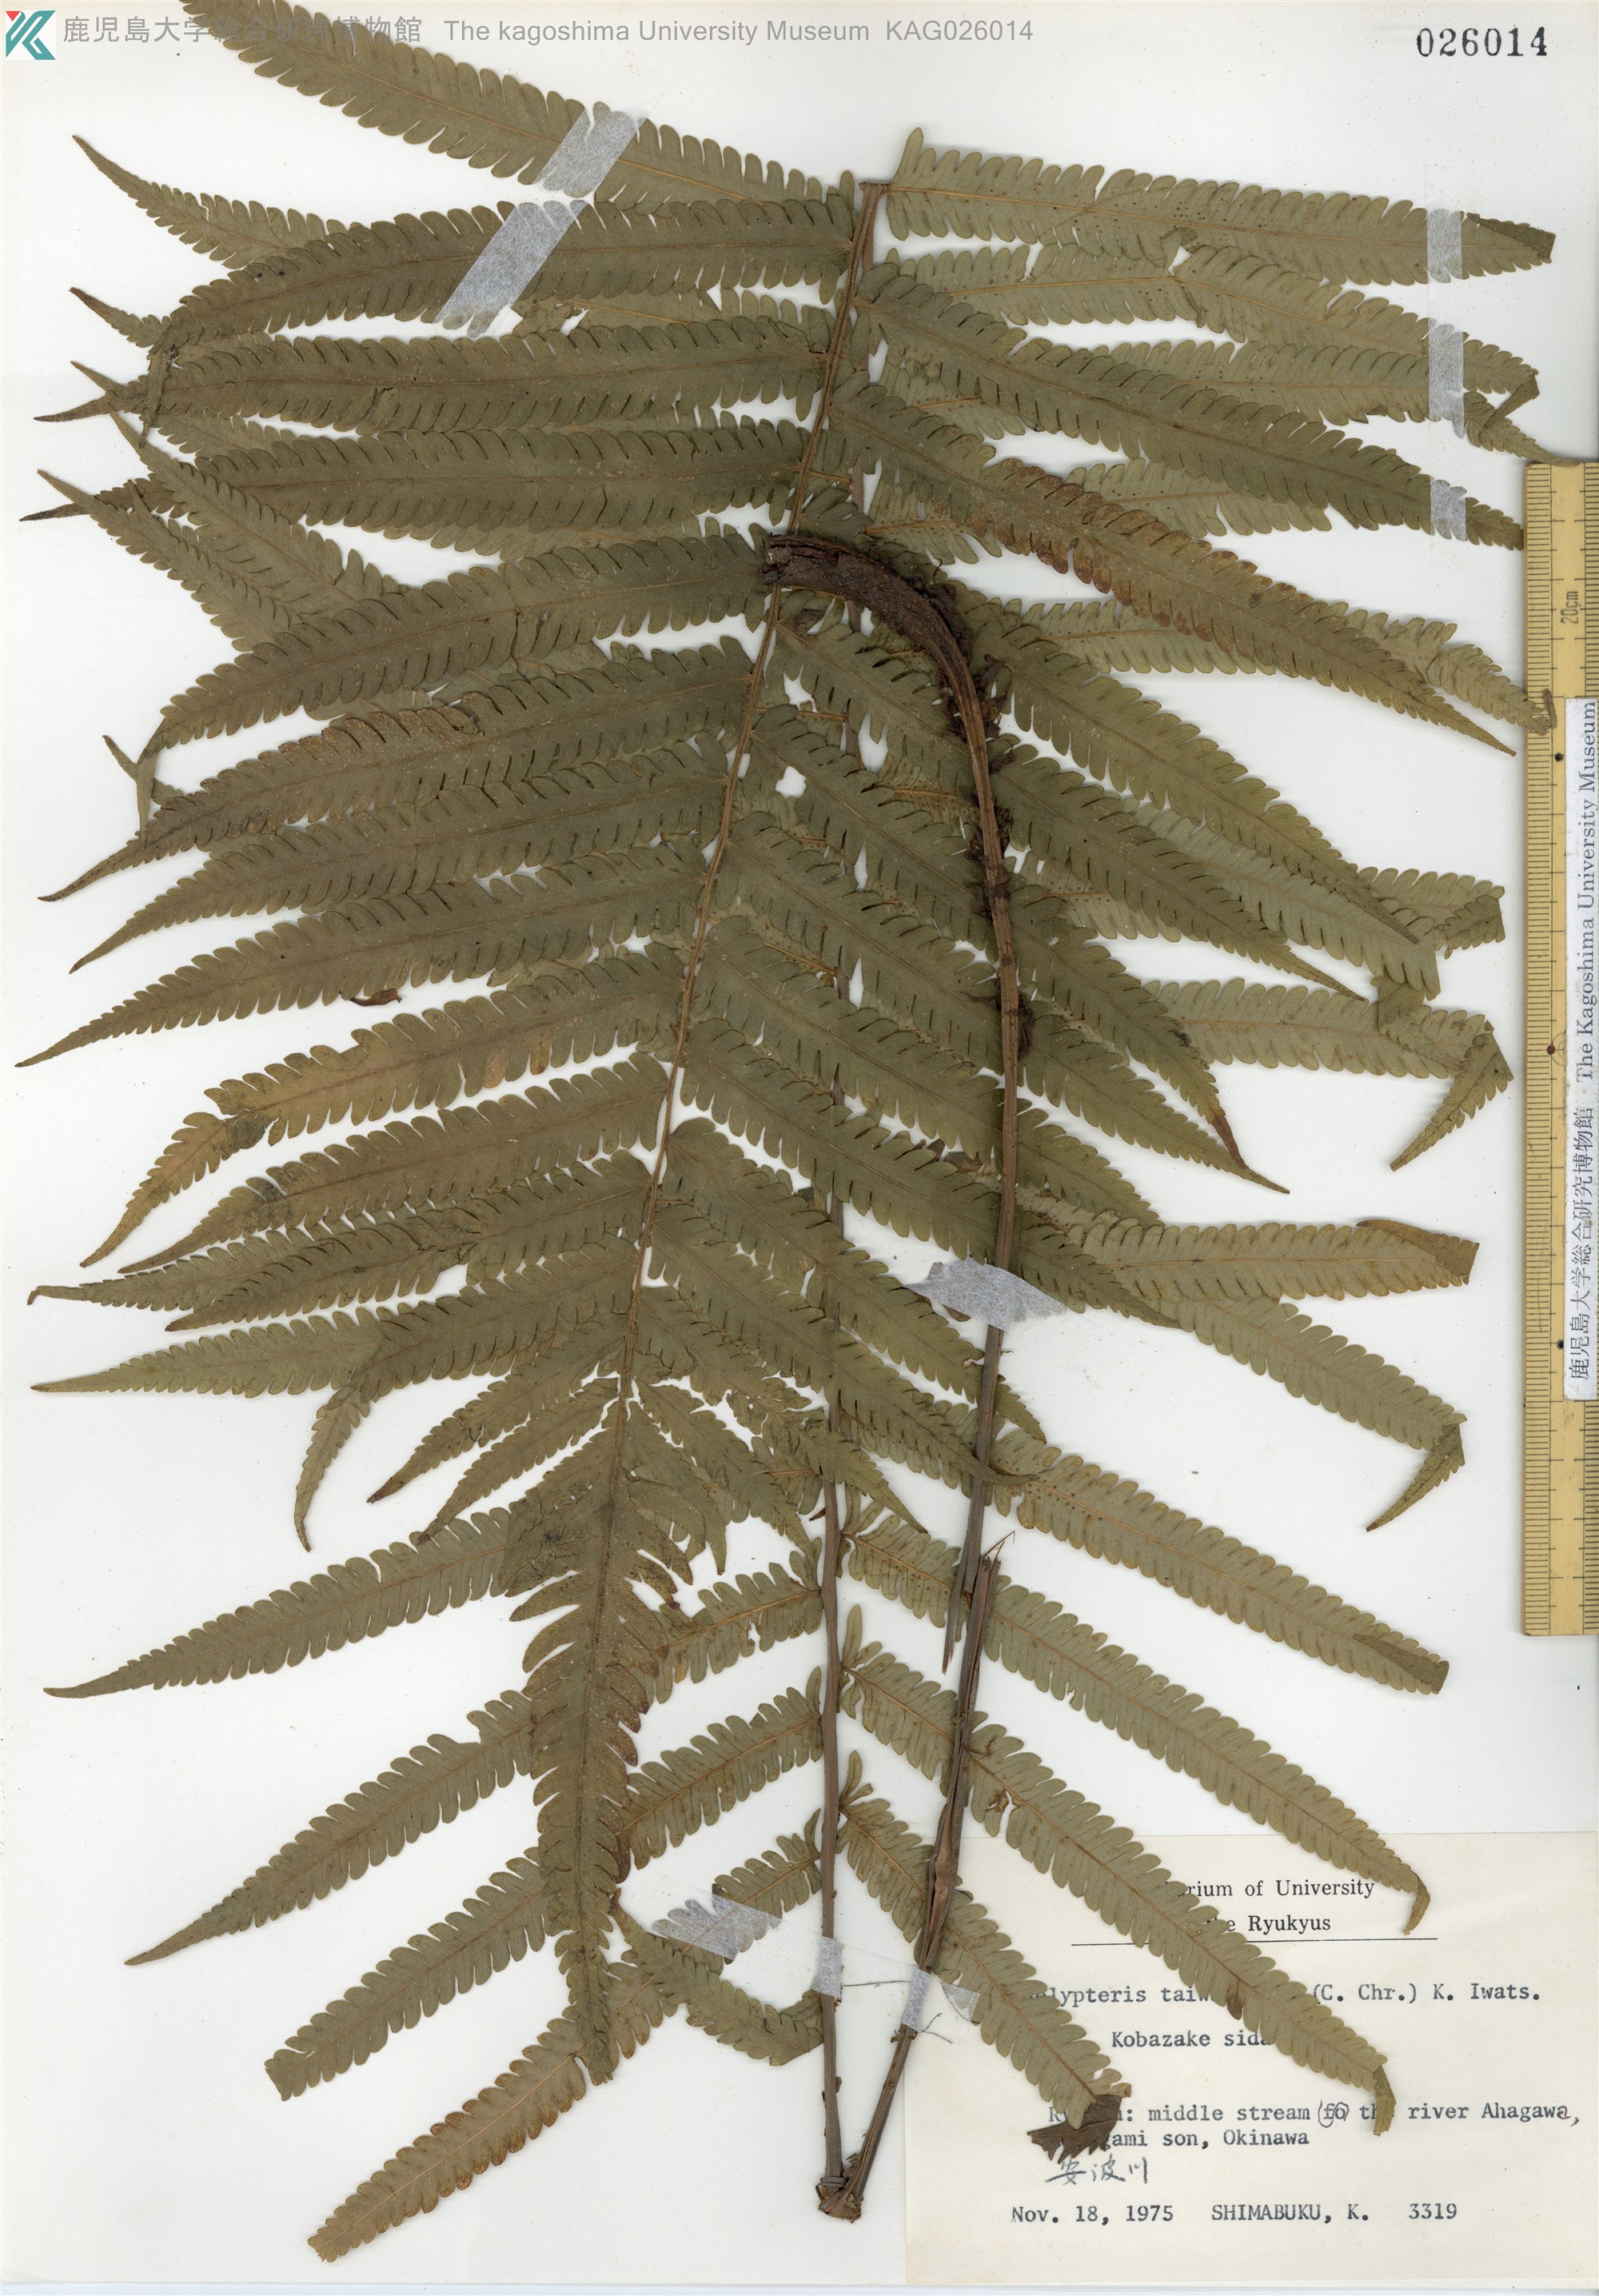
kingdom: Plantae
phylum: Tracheophyta
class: Polypodiopsida
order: Polypodiales
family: Thelypteridaceae
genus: Sphaerostephanos
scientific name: Sphaerostephanos taiwanensis
